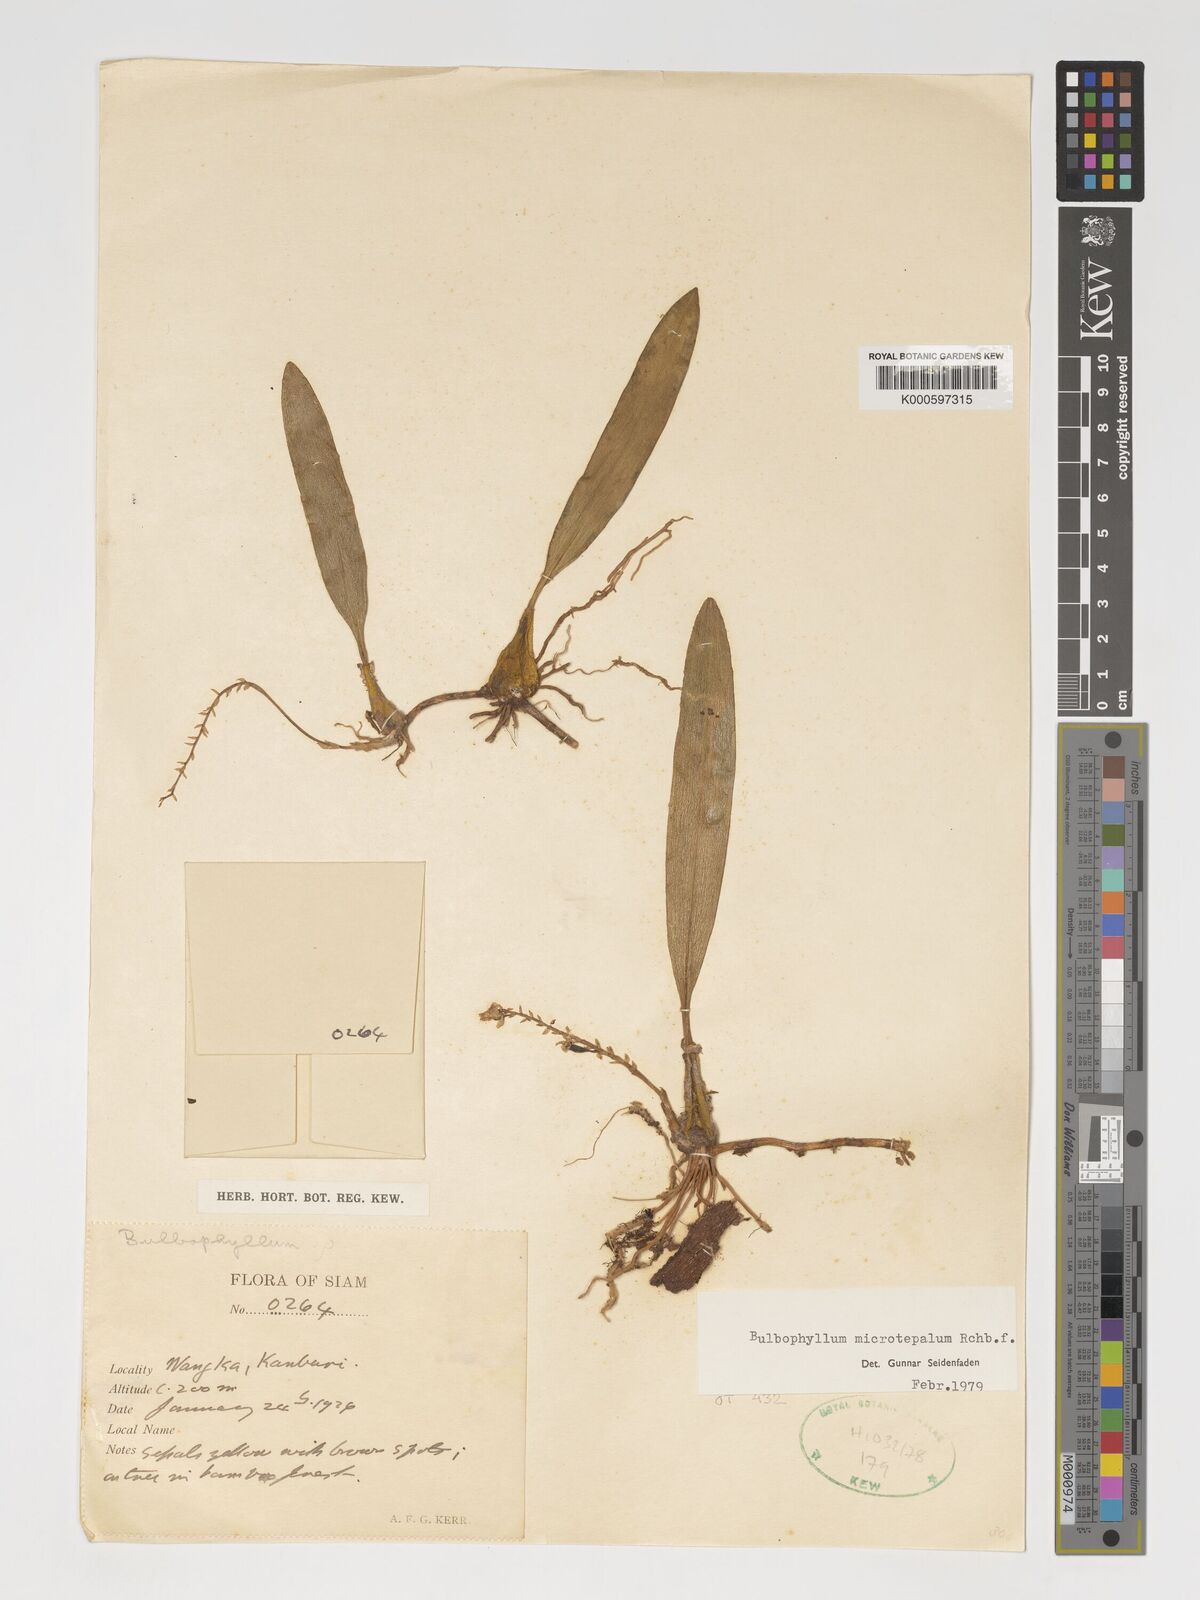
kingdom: Plantae
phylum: Tracheophyta
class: Liliopsida
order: Asparagales
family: Orchidaceae
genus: Bulbophyllum
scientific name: Bulbophyllum microtepalum
